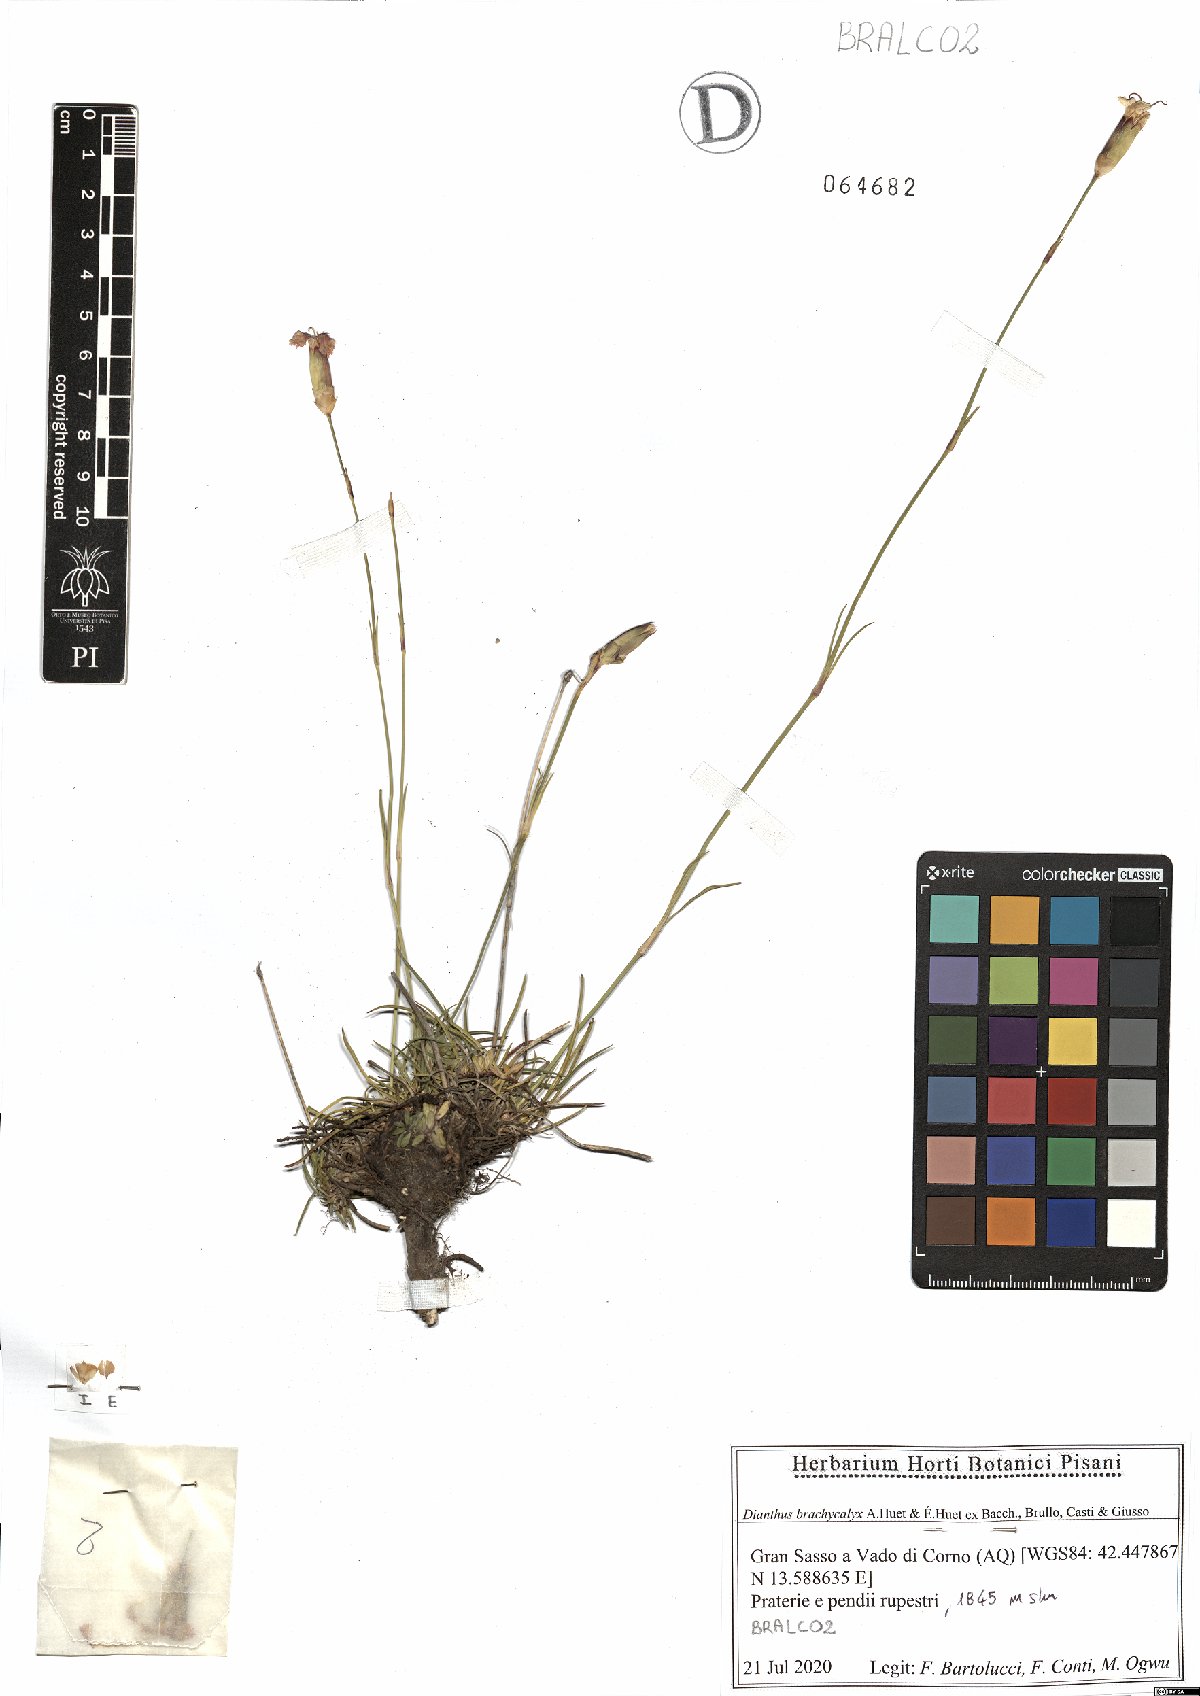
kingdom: Plantae
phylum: Tracheophyta
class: Magnoliopsida
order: Caryophyllales
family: Caryophyllaceae
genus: Dianthus
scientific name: Dianthus brachycalyx
